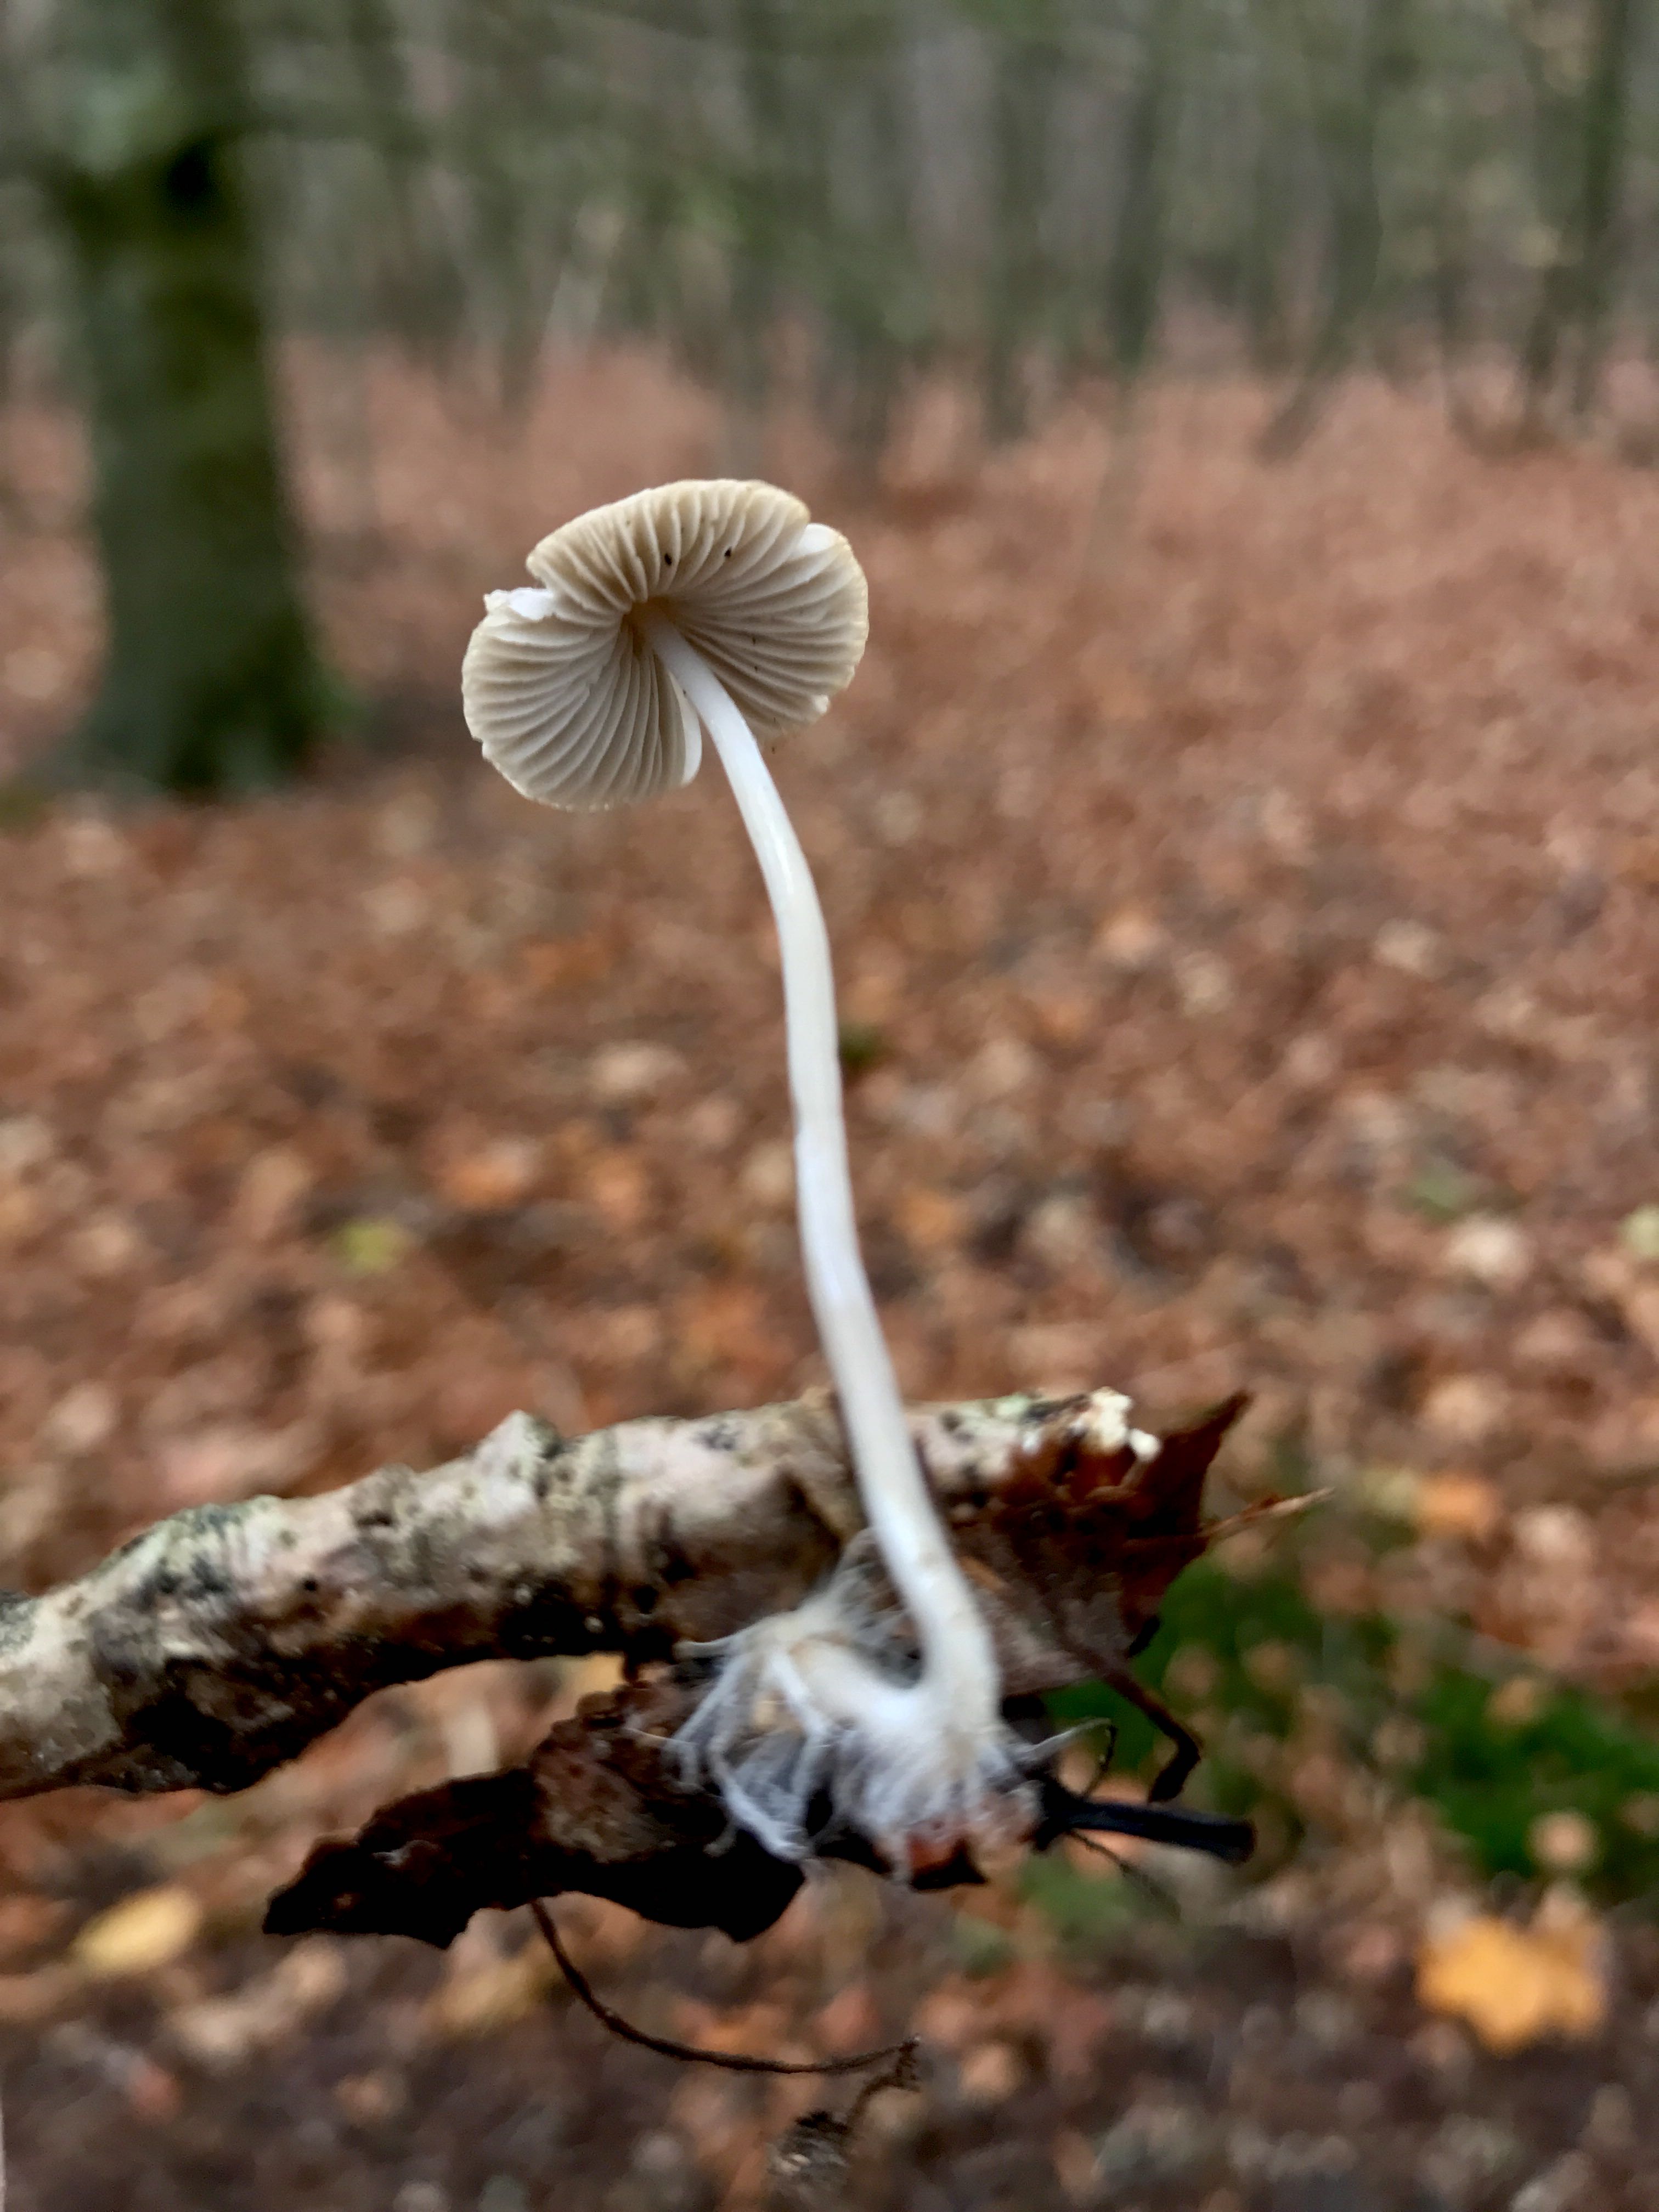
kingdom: Fungi
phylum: Basidiomycota
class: Agaricomycetes
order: Agaricales
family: Mycenaceae
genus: Mycena
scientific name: Mycena vitilis
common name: blankstokket huesvamp
